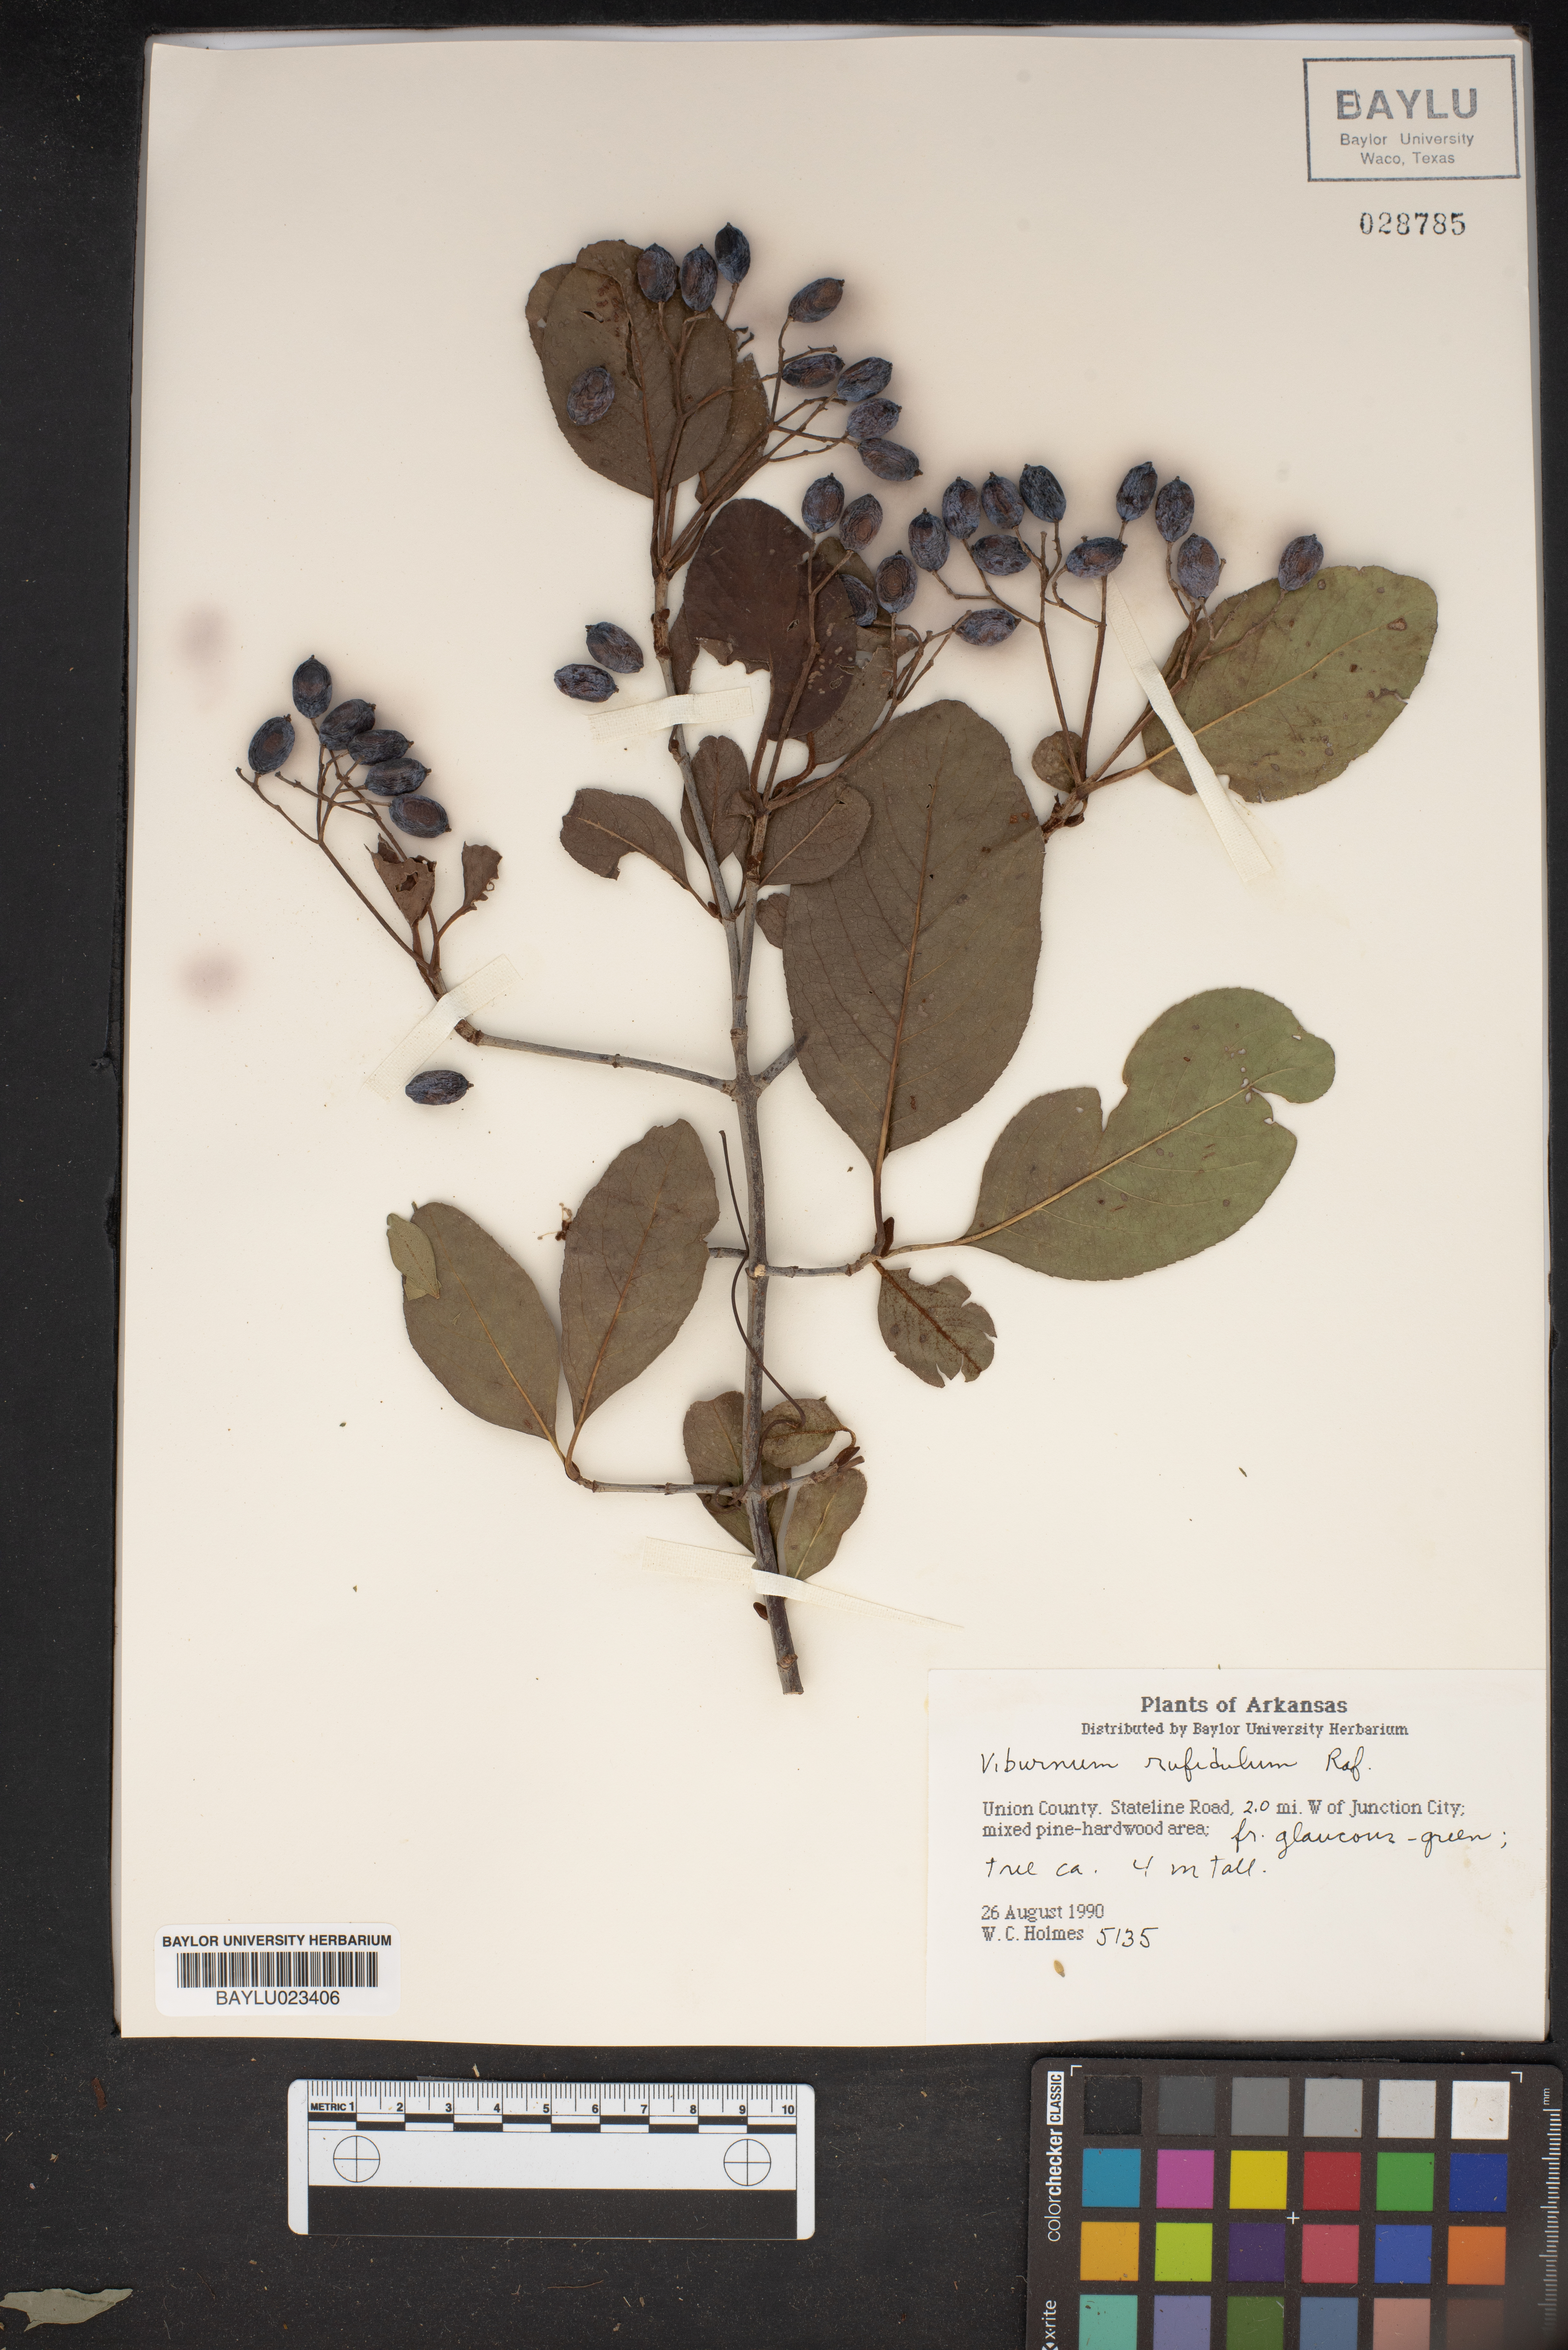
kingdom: Plantae
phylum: Tracheophyta
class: Magnoliopsida
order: Dipsacales
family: Viburnaceae
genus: Viburnum
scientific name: Viburnum rufidulum
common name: Blue haw
